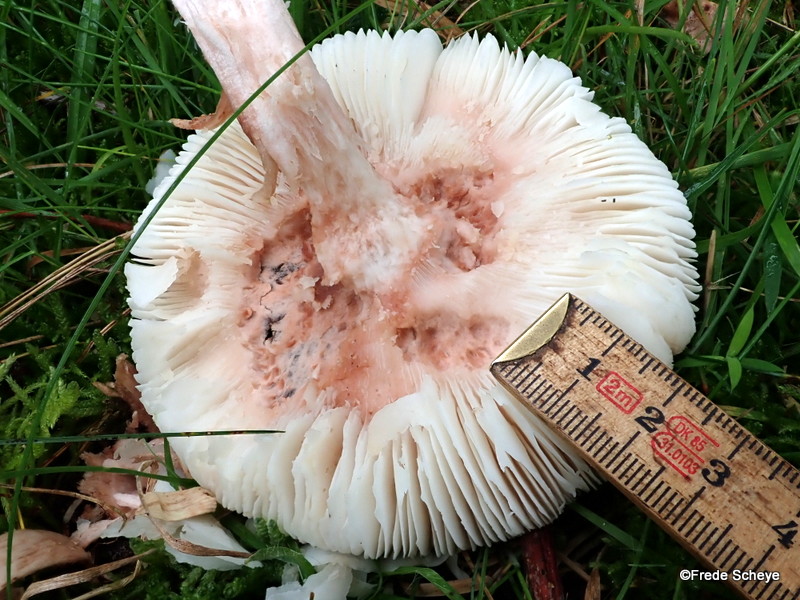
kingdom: Fungi
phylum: Basidiomycota
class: Agaricomycetes
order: Agaricales
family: Amanitaceae
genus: Amanita
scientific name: Amanita rubescens
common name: rødmende fluesvamp
